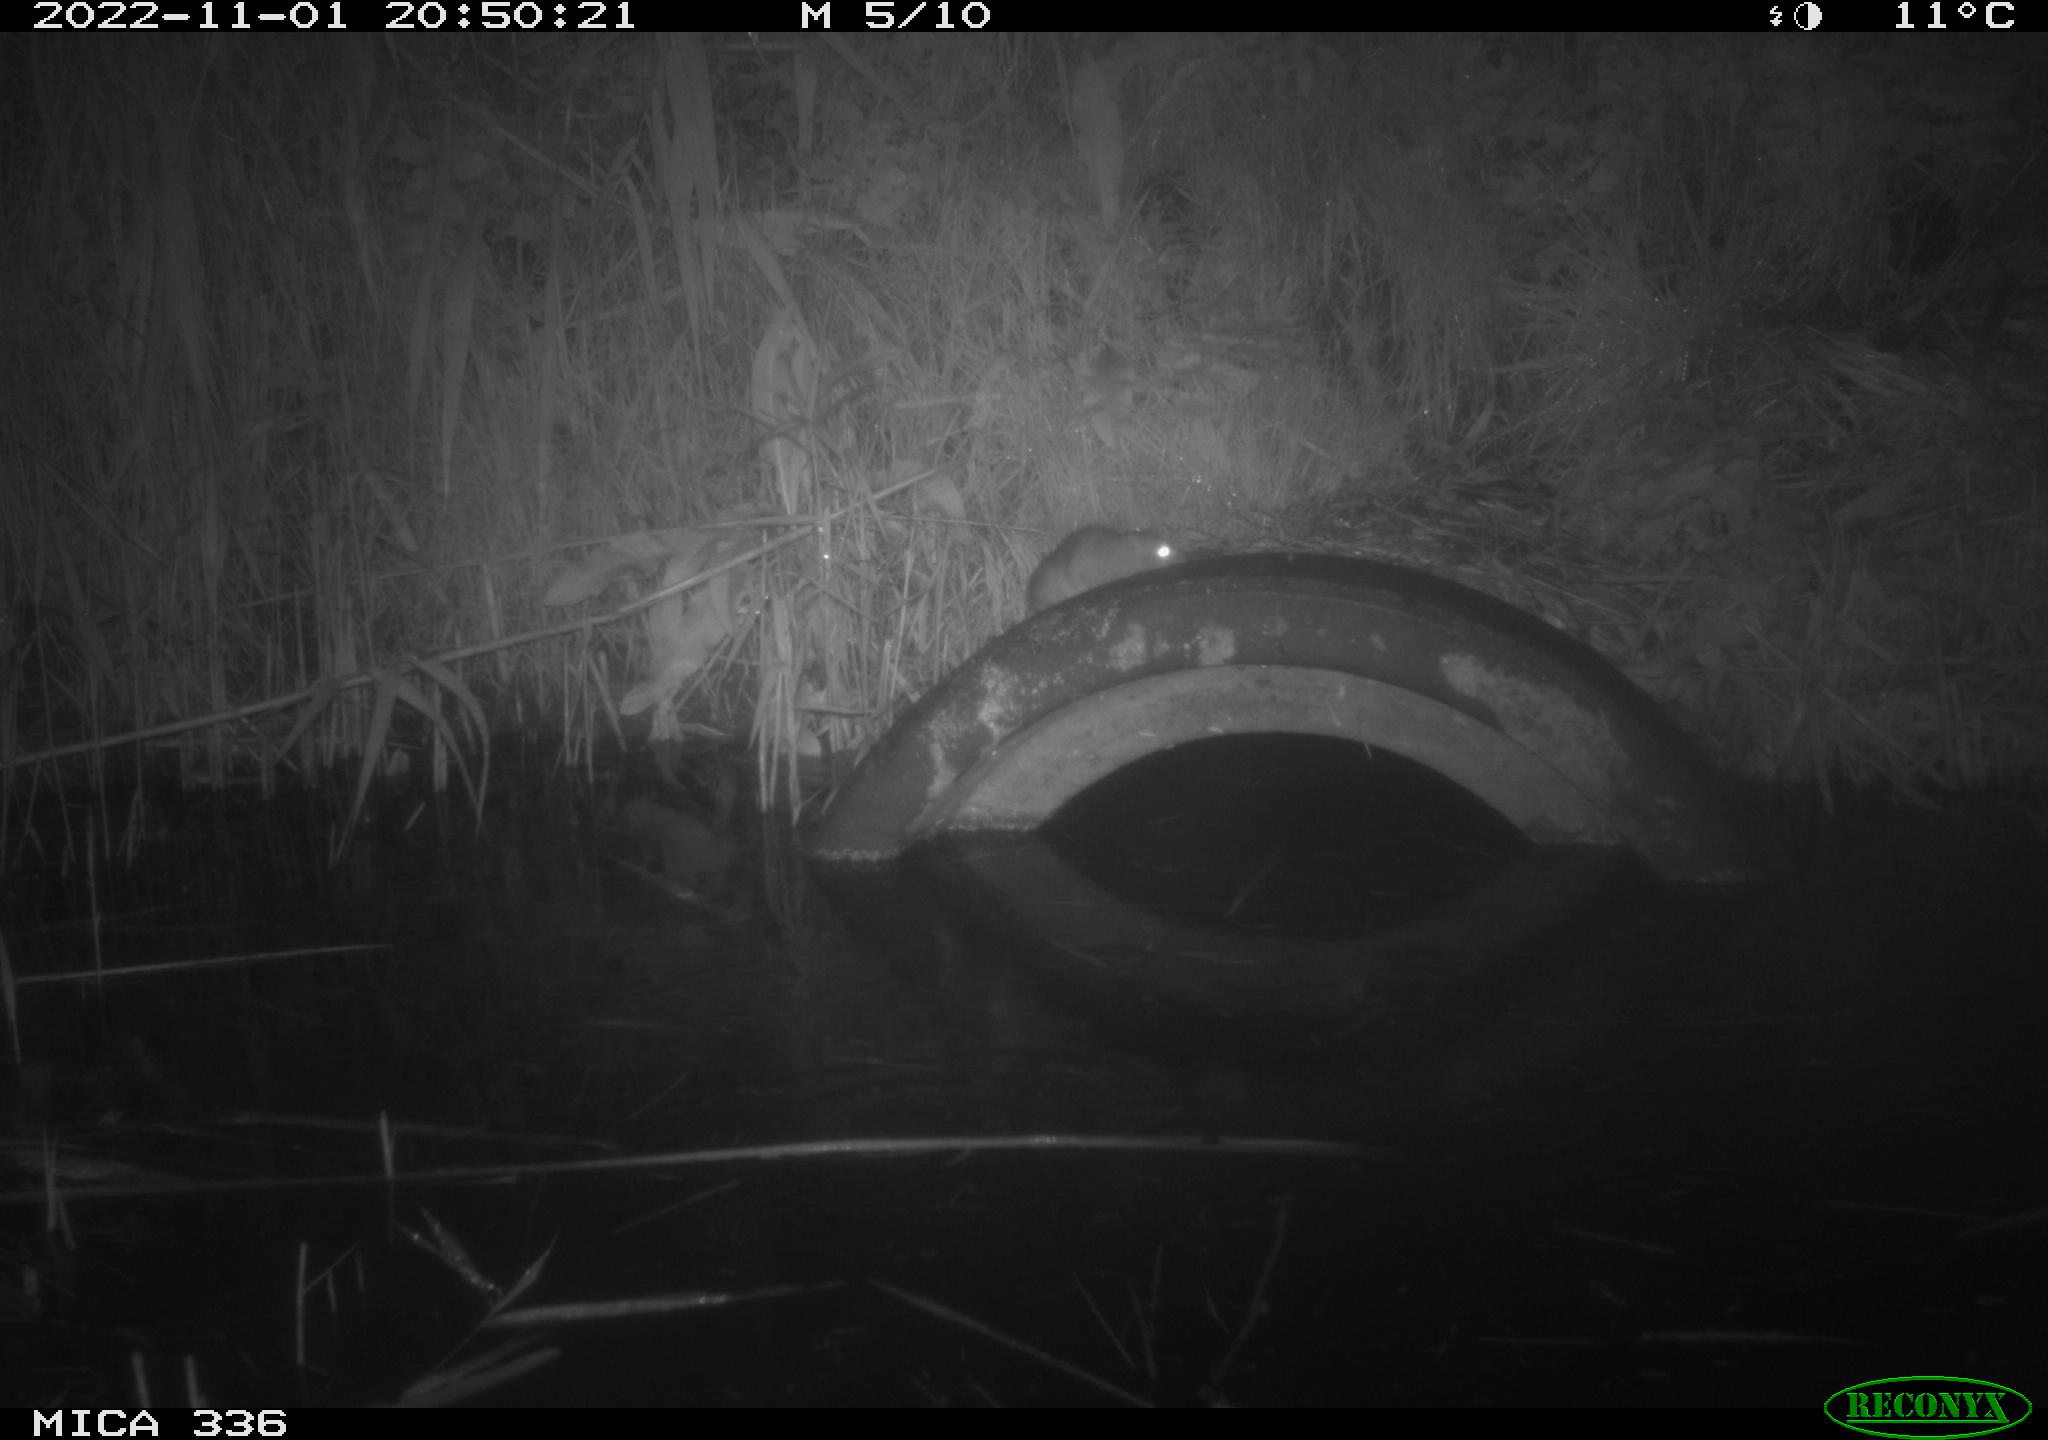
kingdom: Animalia
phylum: Chordata
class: Mammalia
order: Rodentia
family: Muridae
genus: Rattus
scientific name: Rattus norvegicus
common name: Brown rat
